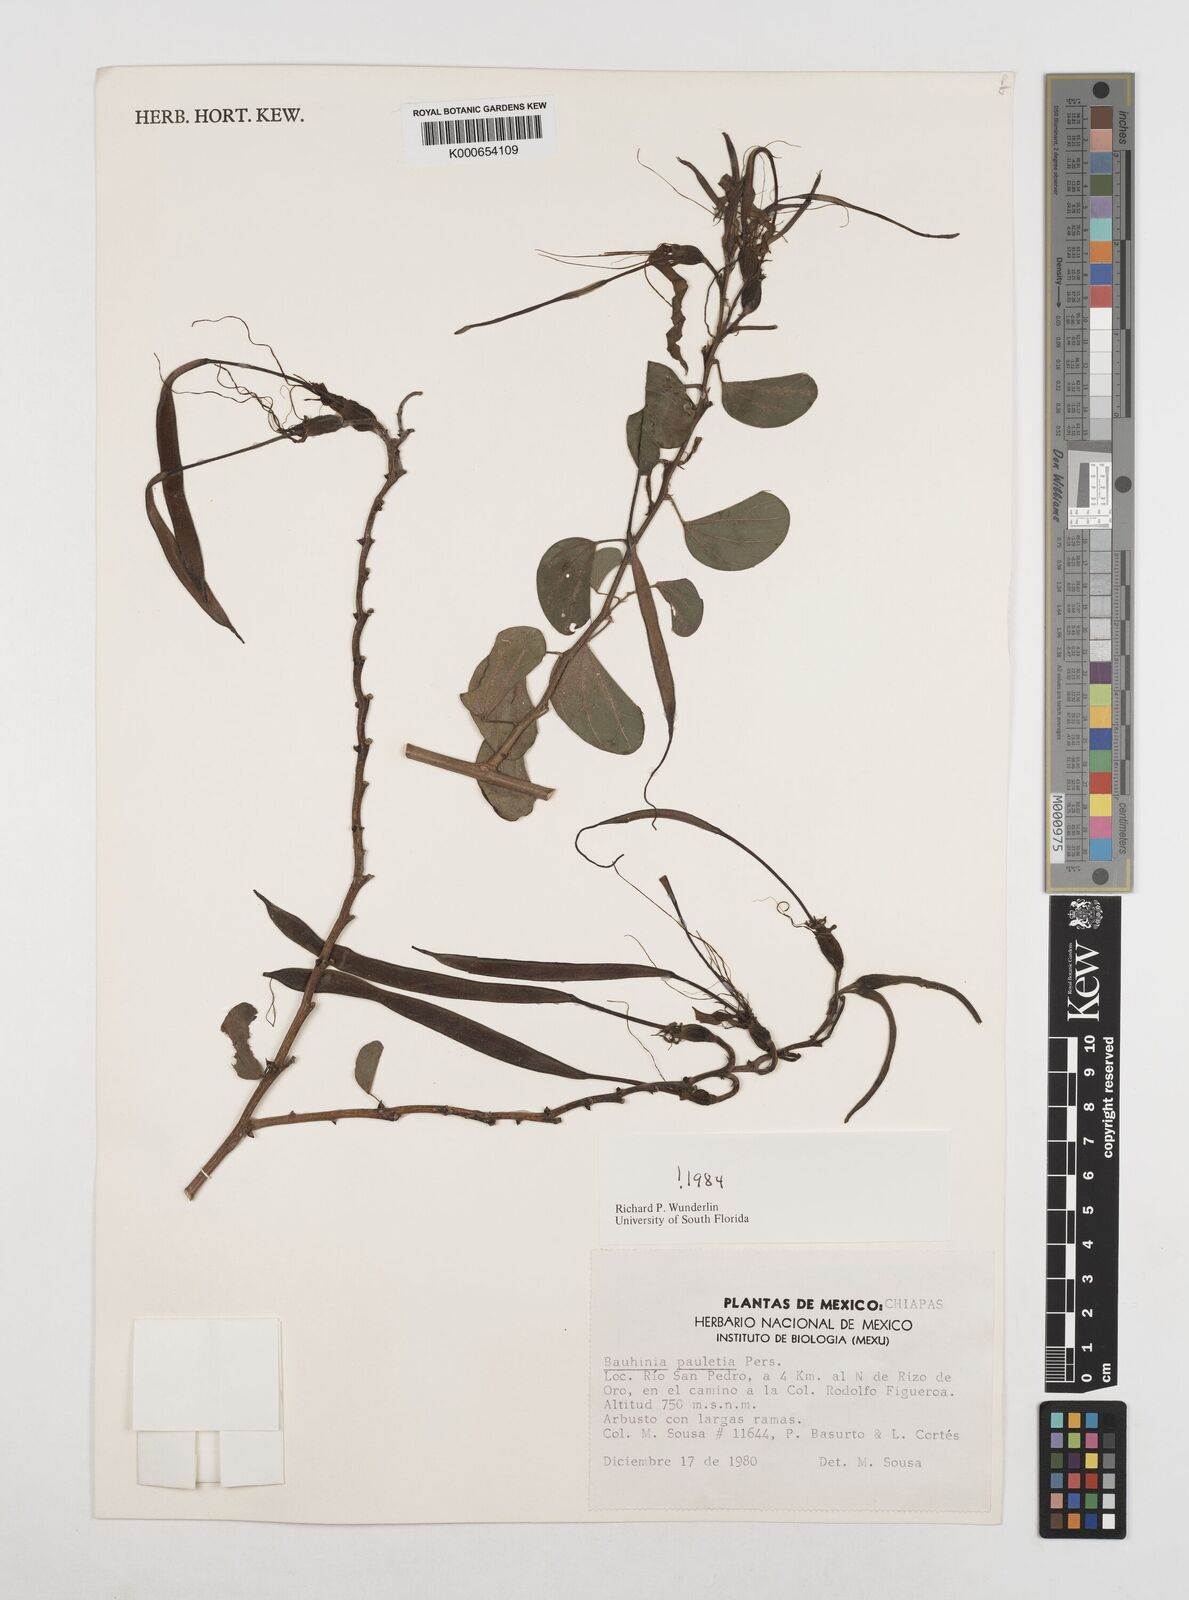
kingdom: Plantae
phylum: Tracheophyta
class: Magnoliopsida
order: Fabales
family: Fabaceae
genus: Bauhinia
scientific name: Bauhinia pauletia
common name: Railway-fence bauhinia
